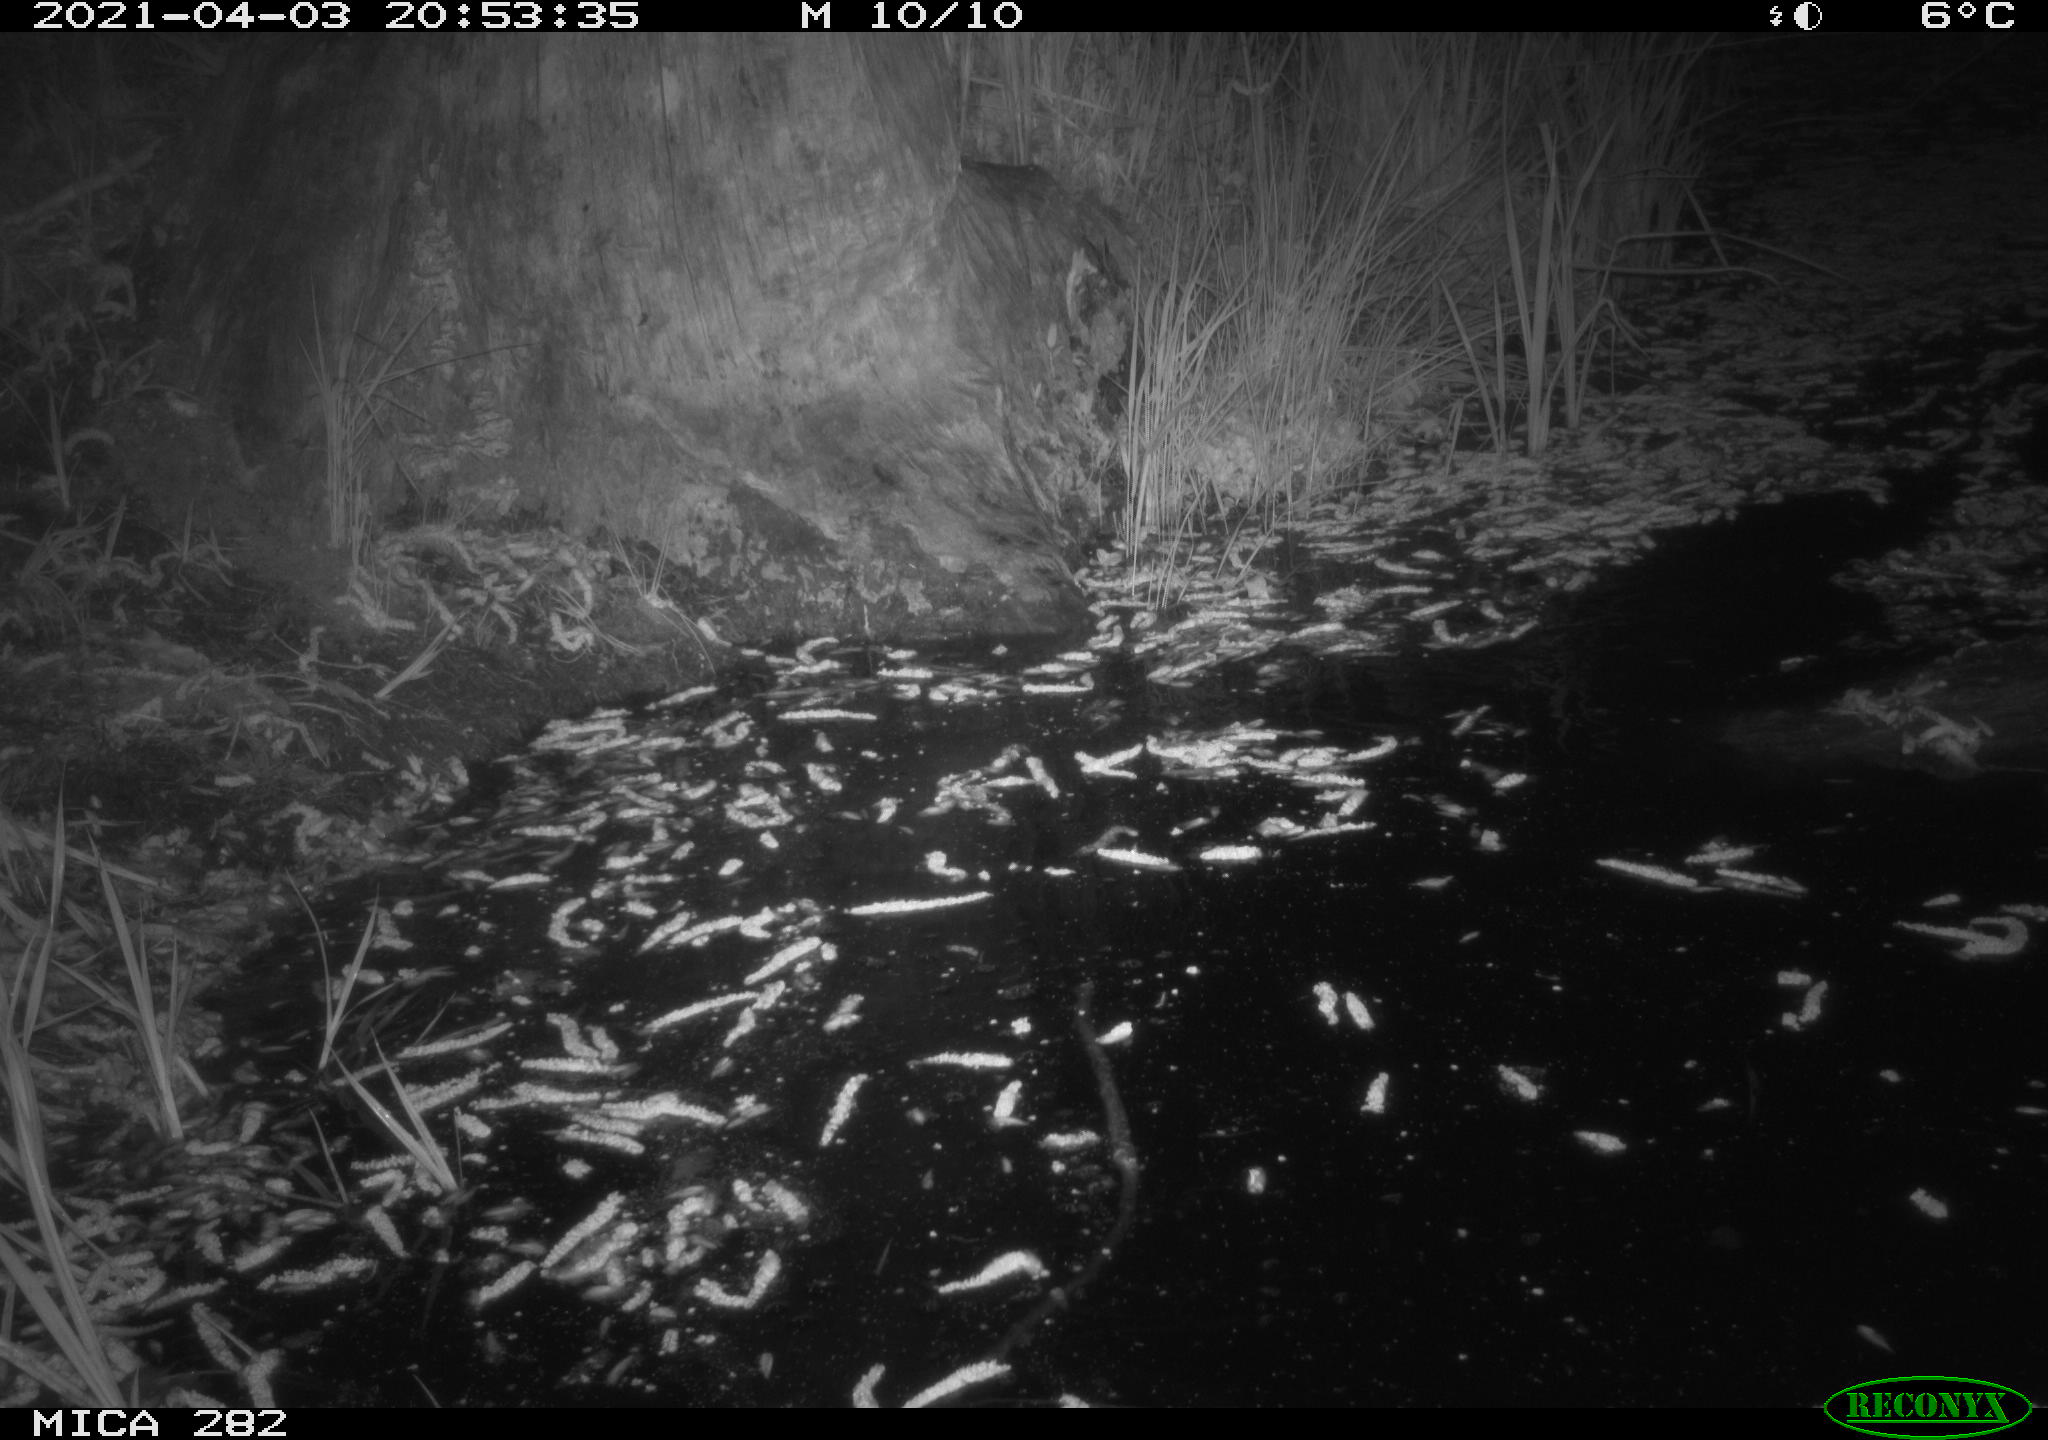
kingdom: Animalia
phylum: Chordata
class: Mammalia
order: Rodentia
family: Castoridae
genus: Castor
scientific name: Castor fiber
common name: Eurasian beaver
